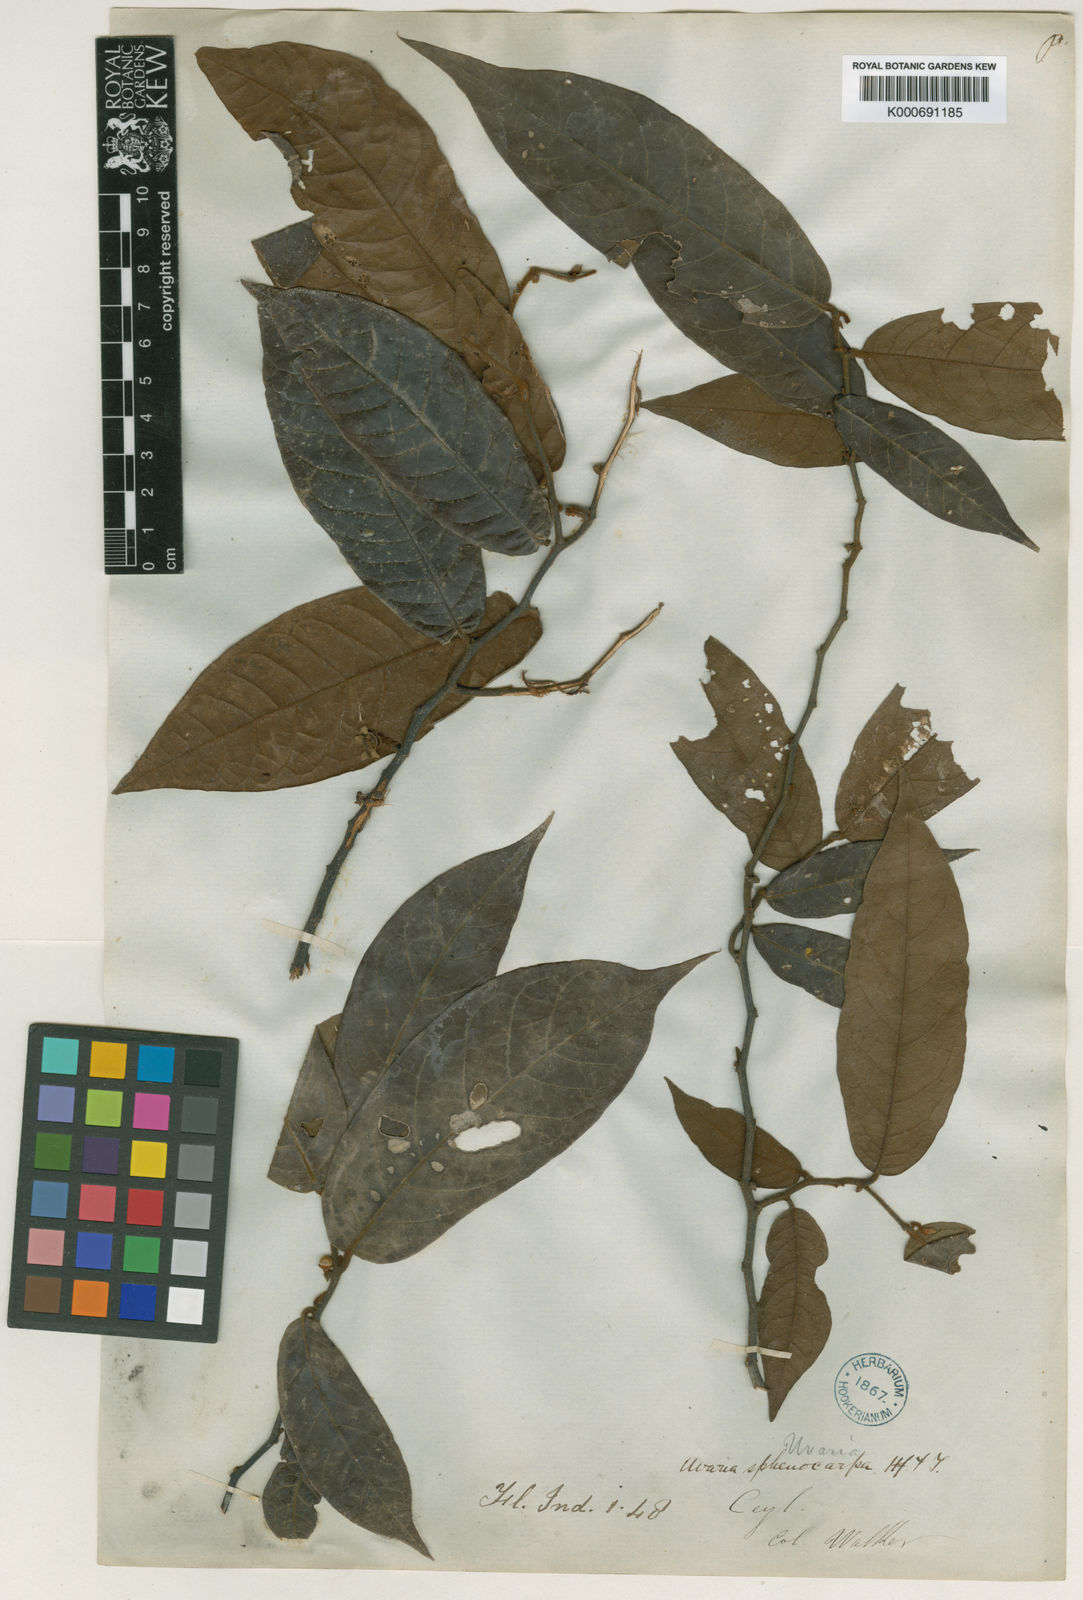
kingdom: Plantae
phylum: Tracheophyta
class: Magnoliopsida
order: Magnoliales
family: Annonaceae
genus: Uvaria
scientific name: Uvaria sphenocarpa
